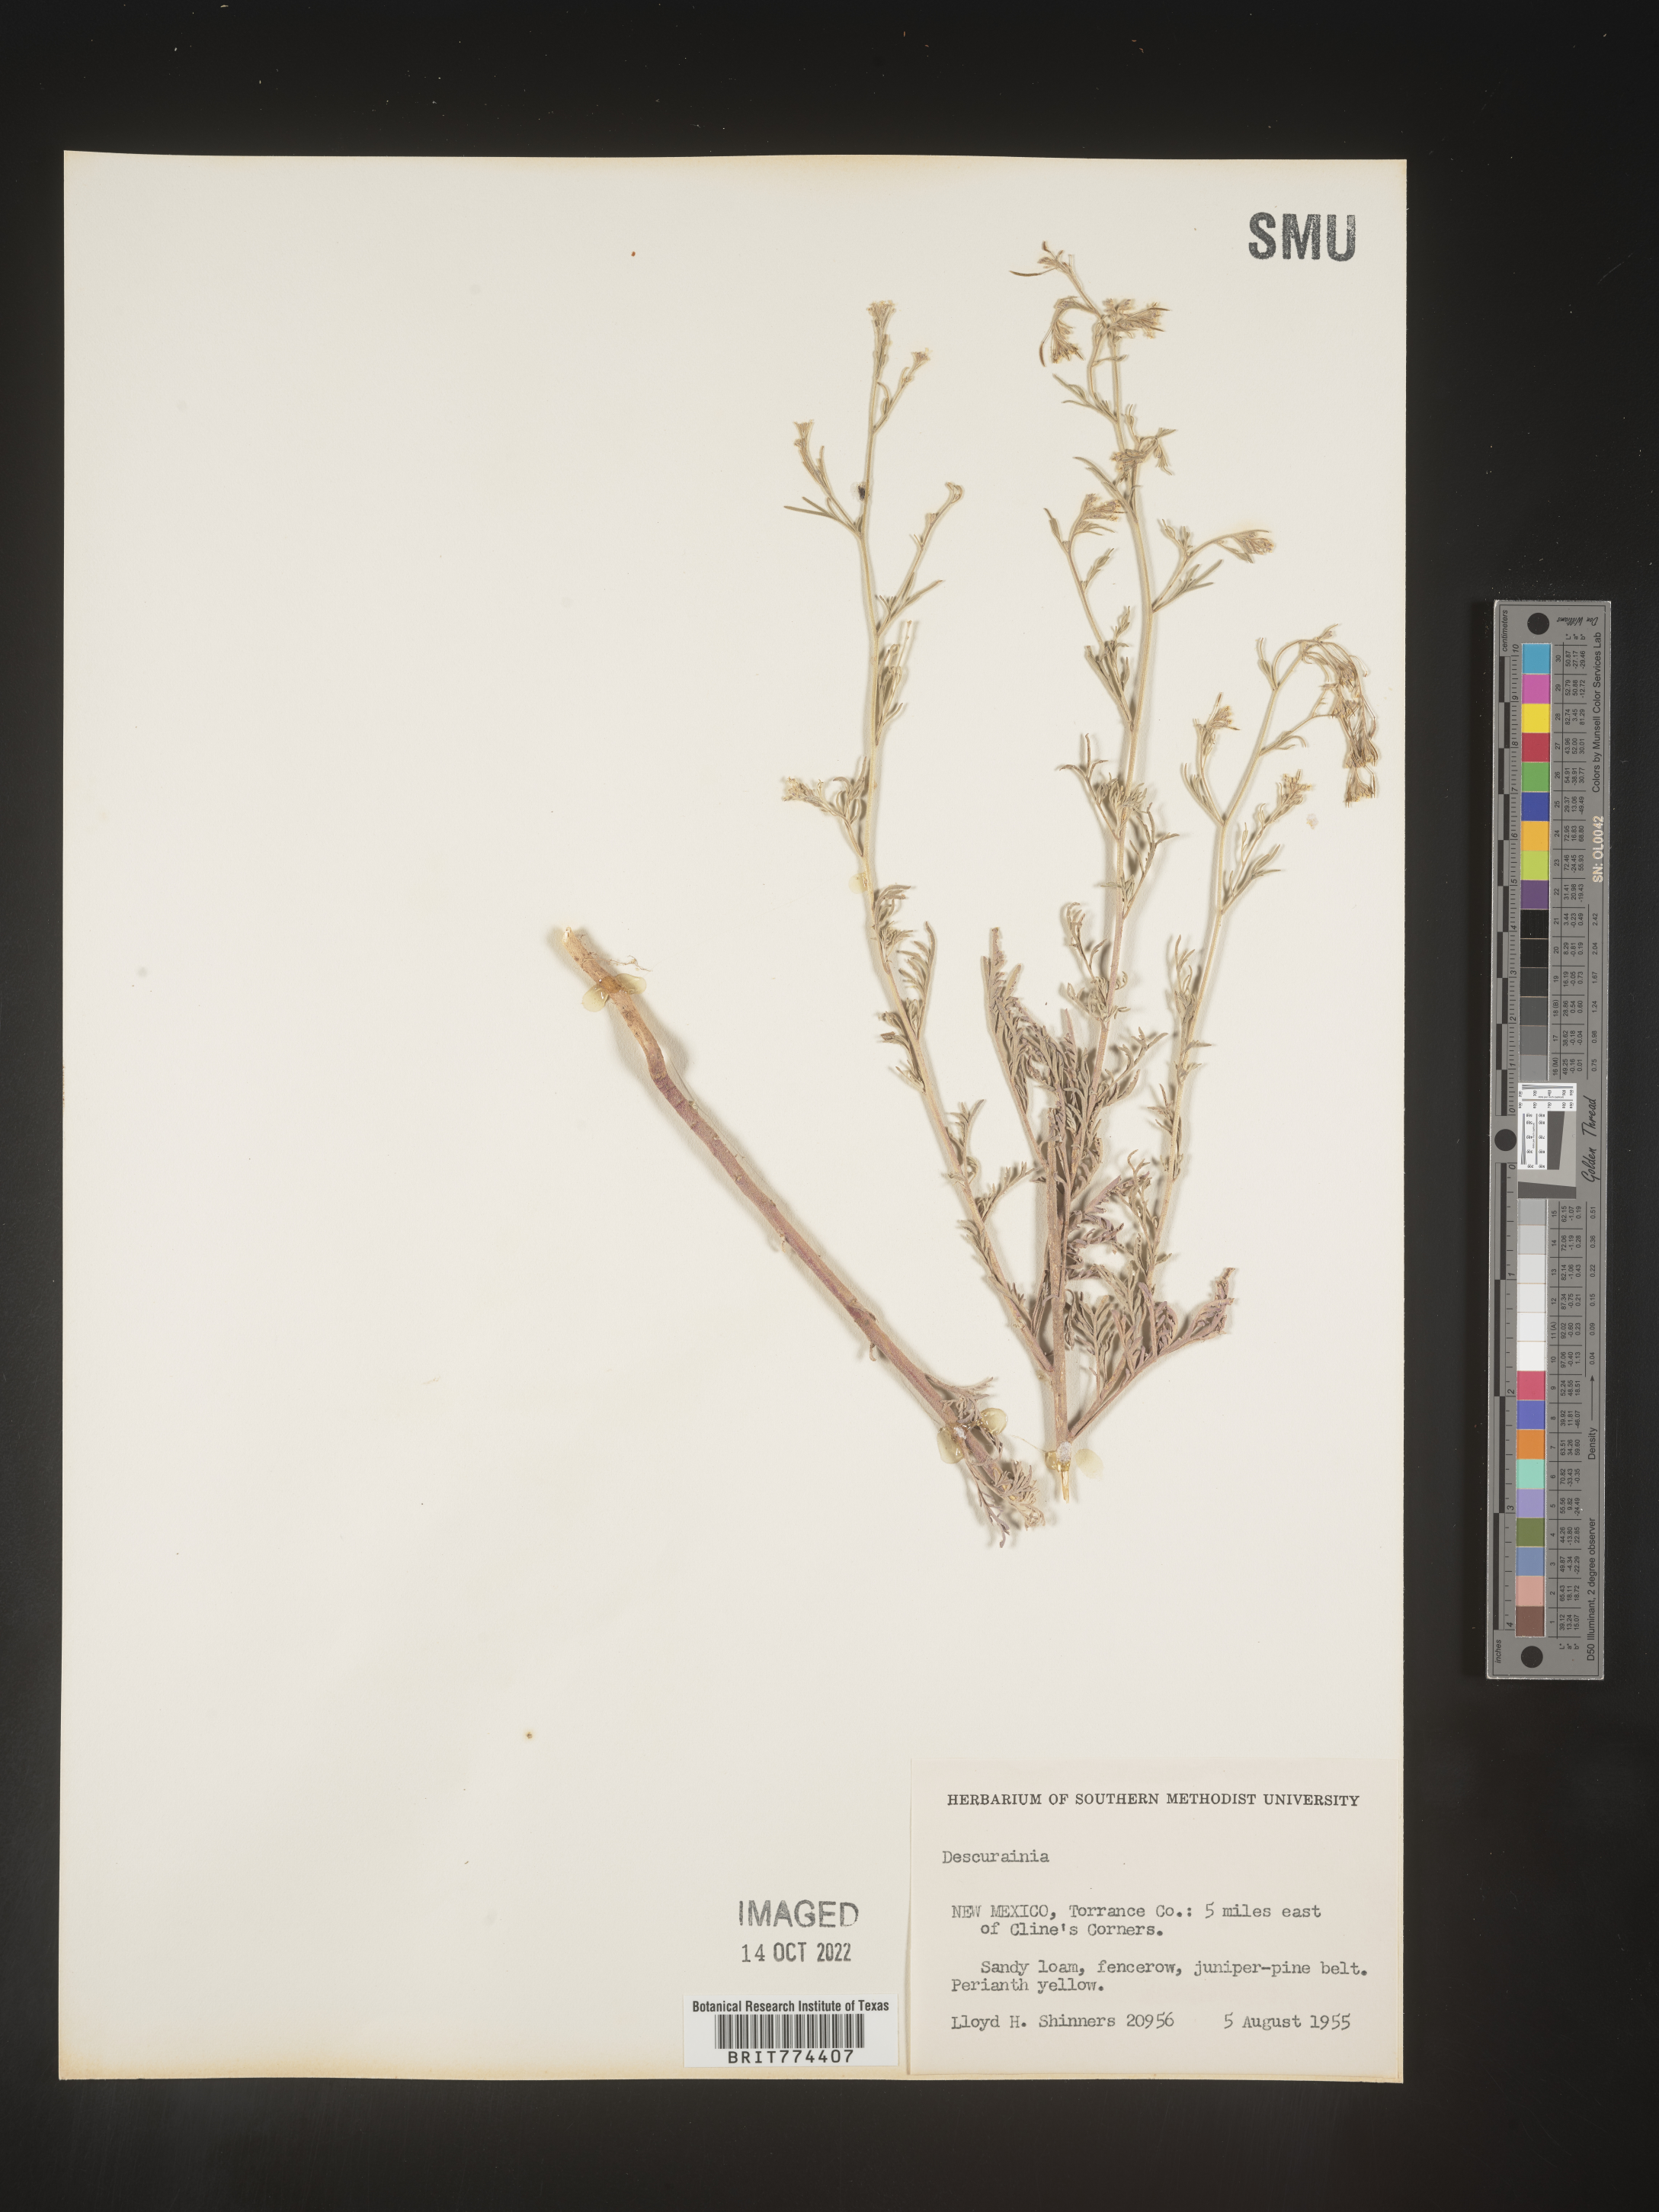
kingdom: Plantae
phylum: Tracheophyta
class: Magnoliopsida
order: Brassicales
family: Brassicaceae
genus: Descurainia
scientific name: Descurainia
